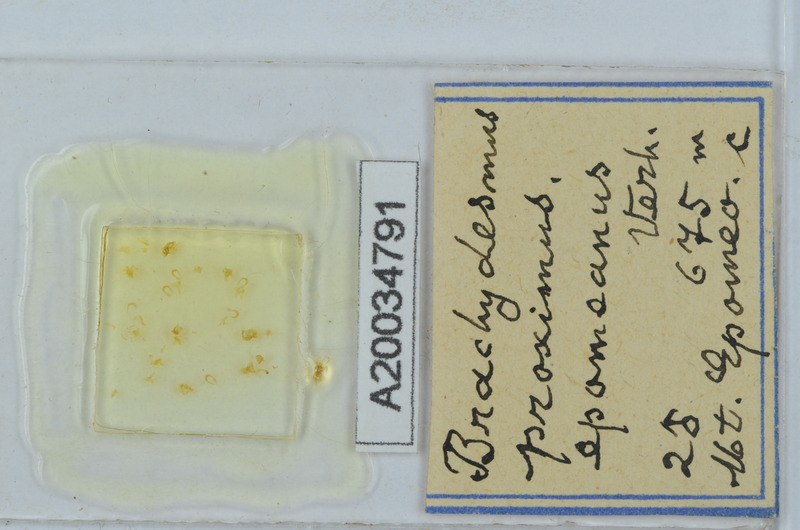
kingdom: Animalia
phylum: Arthropoda
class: Diplopoda
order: Polydesmida
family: Polydesmidae
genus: Brachydesmus
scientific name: Brachydesmus proximus
